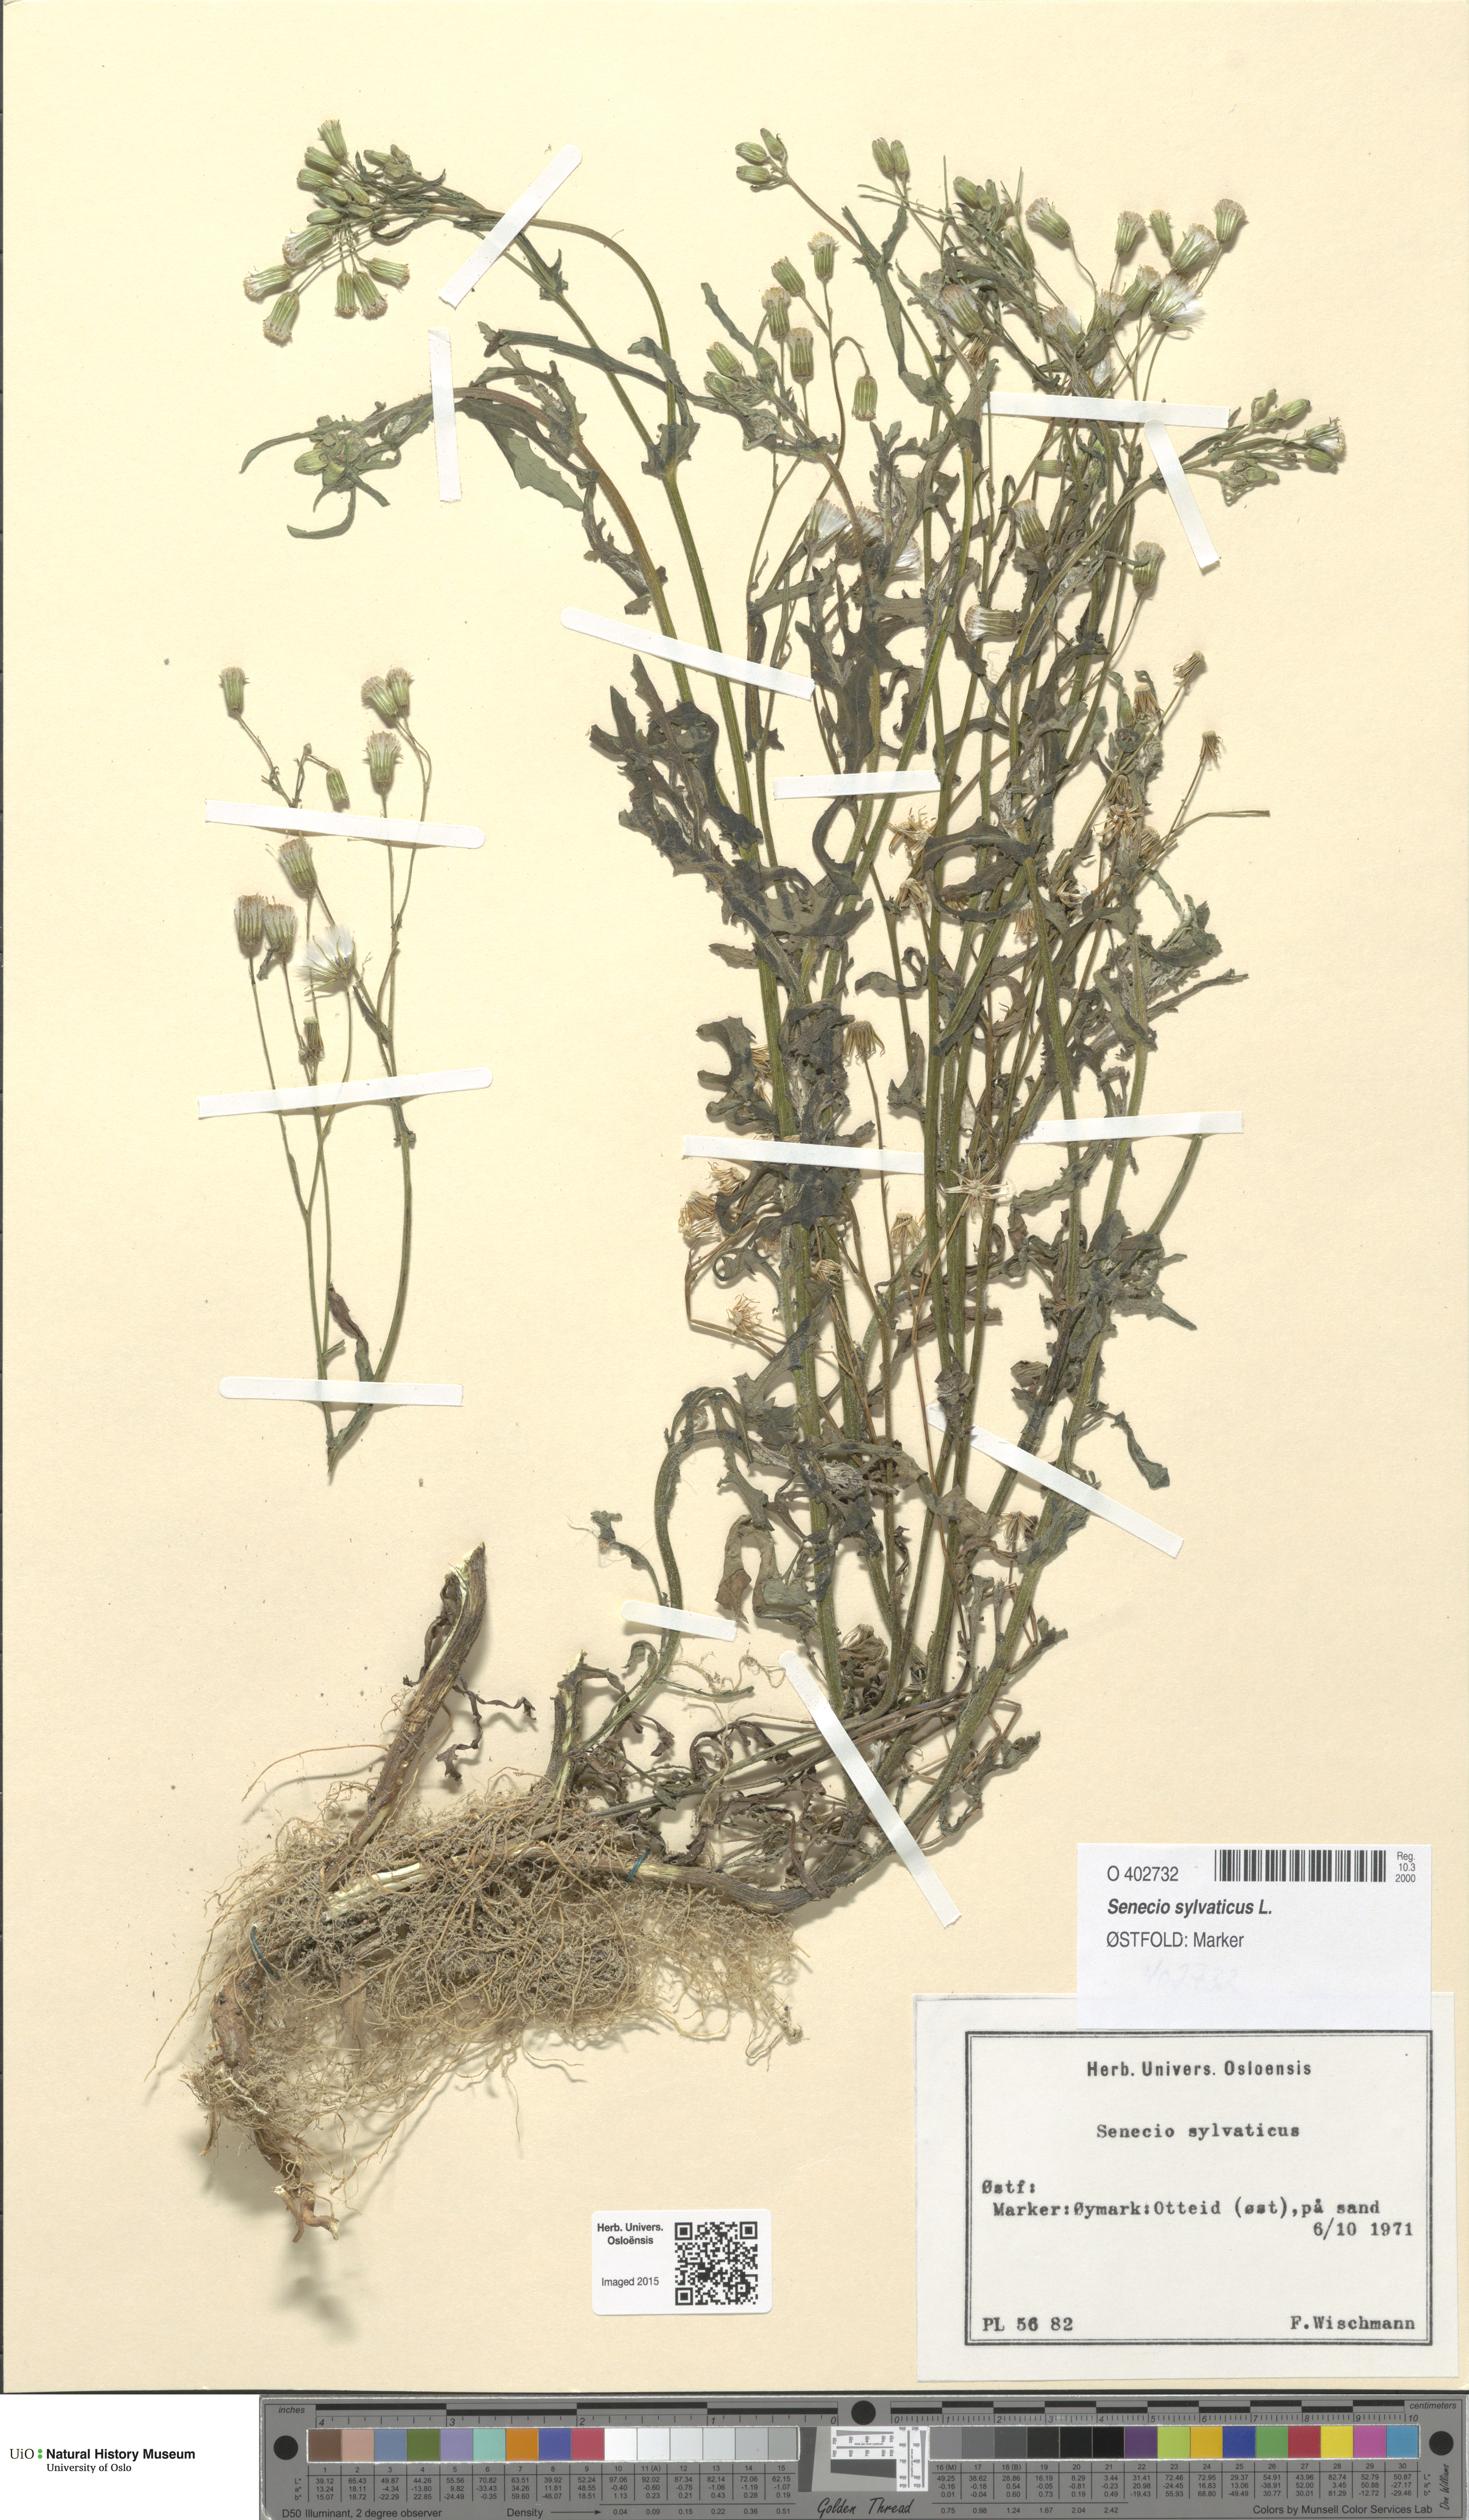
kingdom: Plantae
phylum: Tracheophyta
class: Magnoliopsida
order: Asterales
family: Asteraceae
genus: Senecio
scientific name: Senecio sylvaticus
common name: Woodland ragwort
